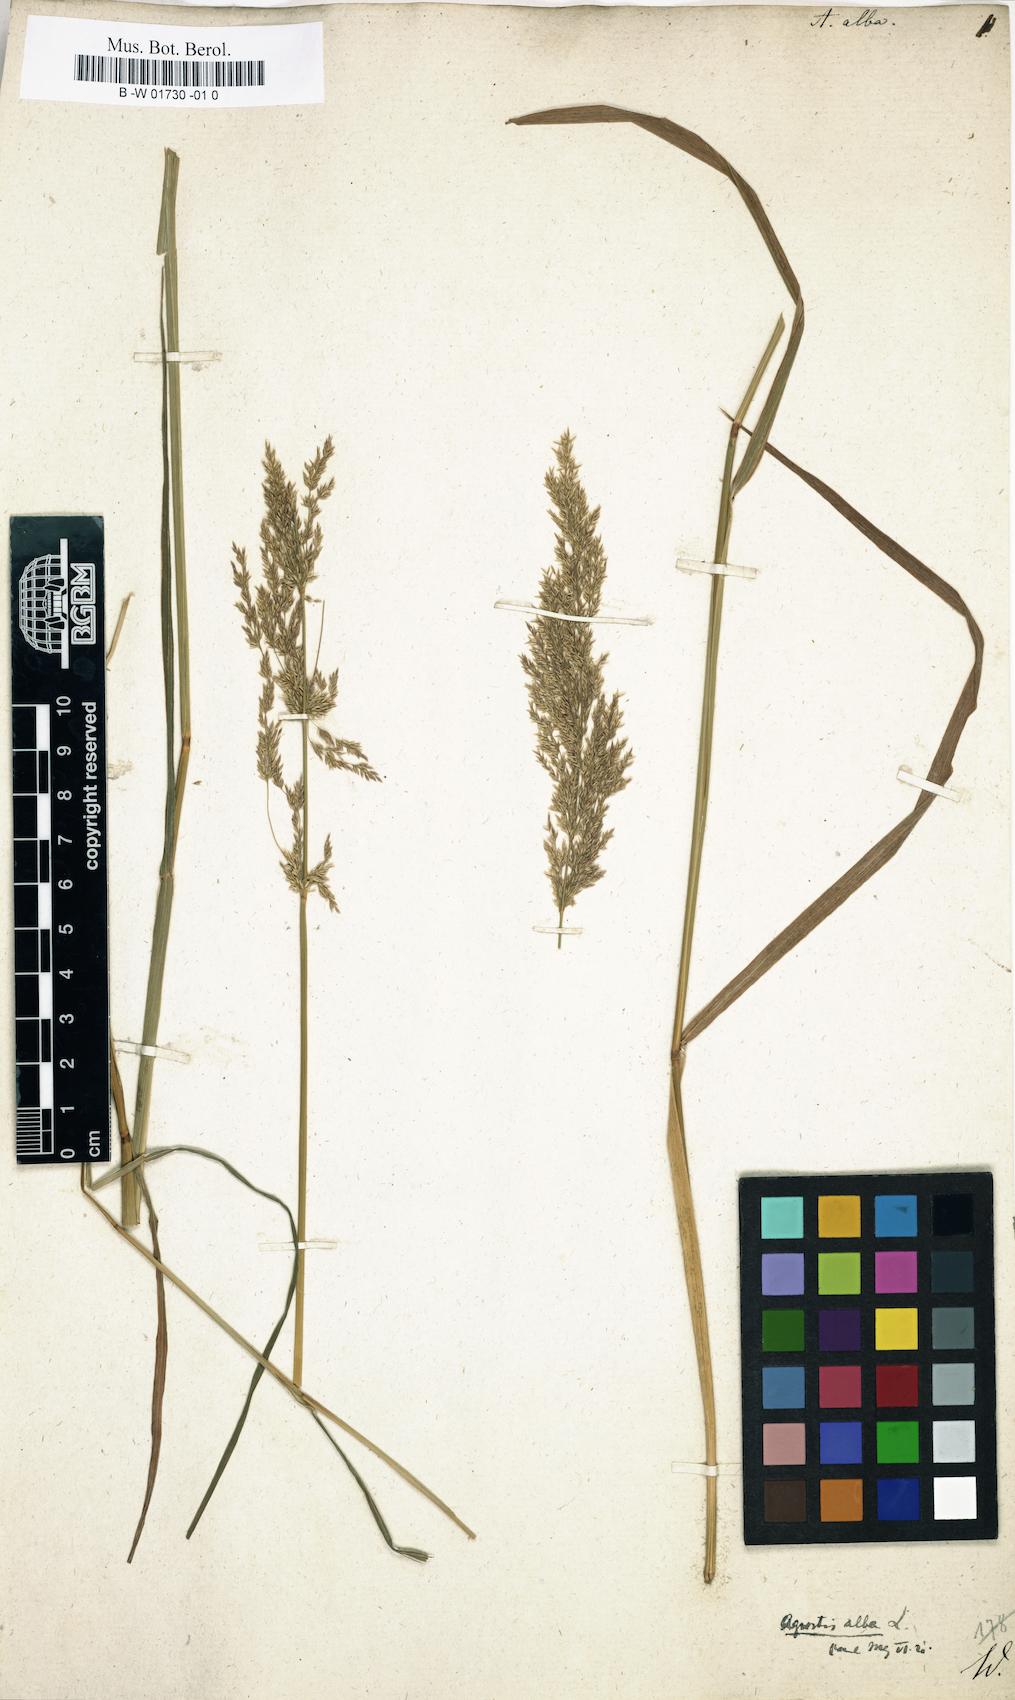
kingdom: Plantae
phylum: Tracheophyta
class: Liliopsida
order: Poales
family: Poaceae
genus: Poa
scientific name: Poa nemoralis
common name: Wood bluegrass
